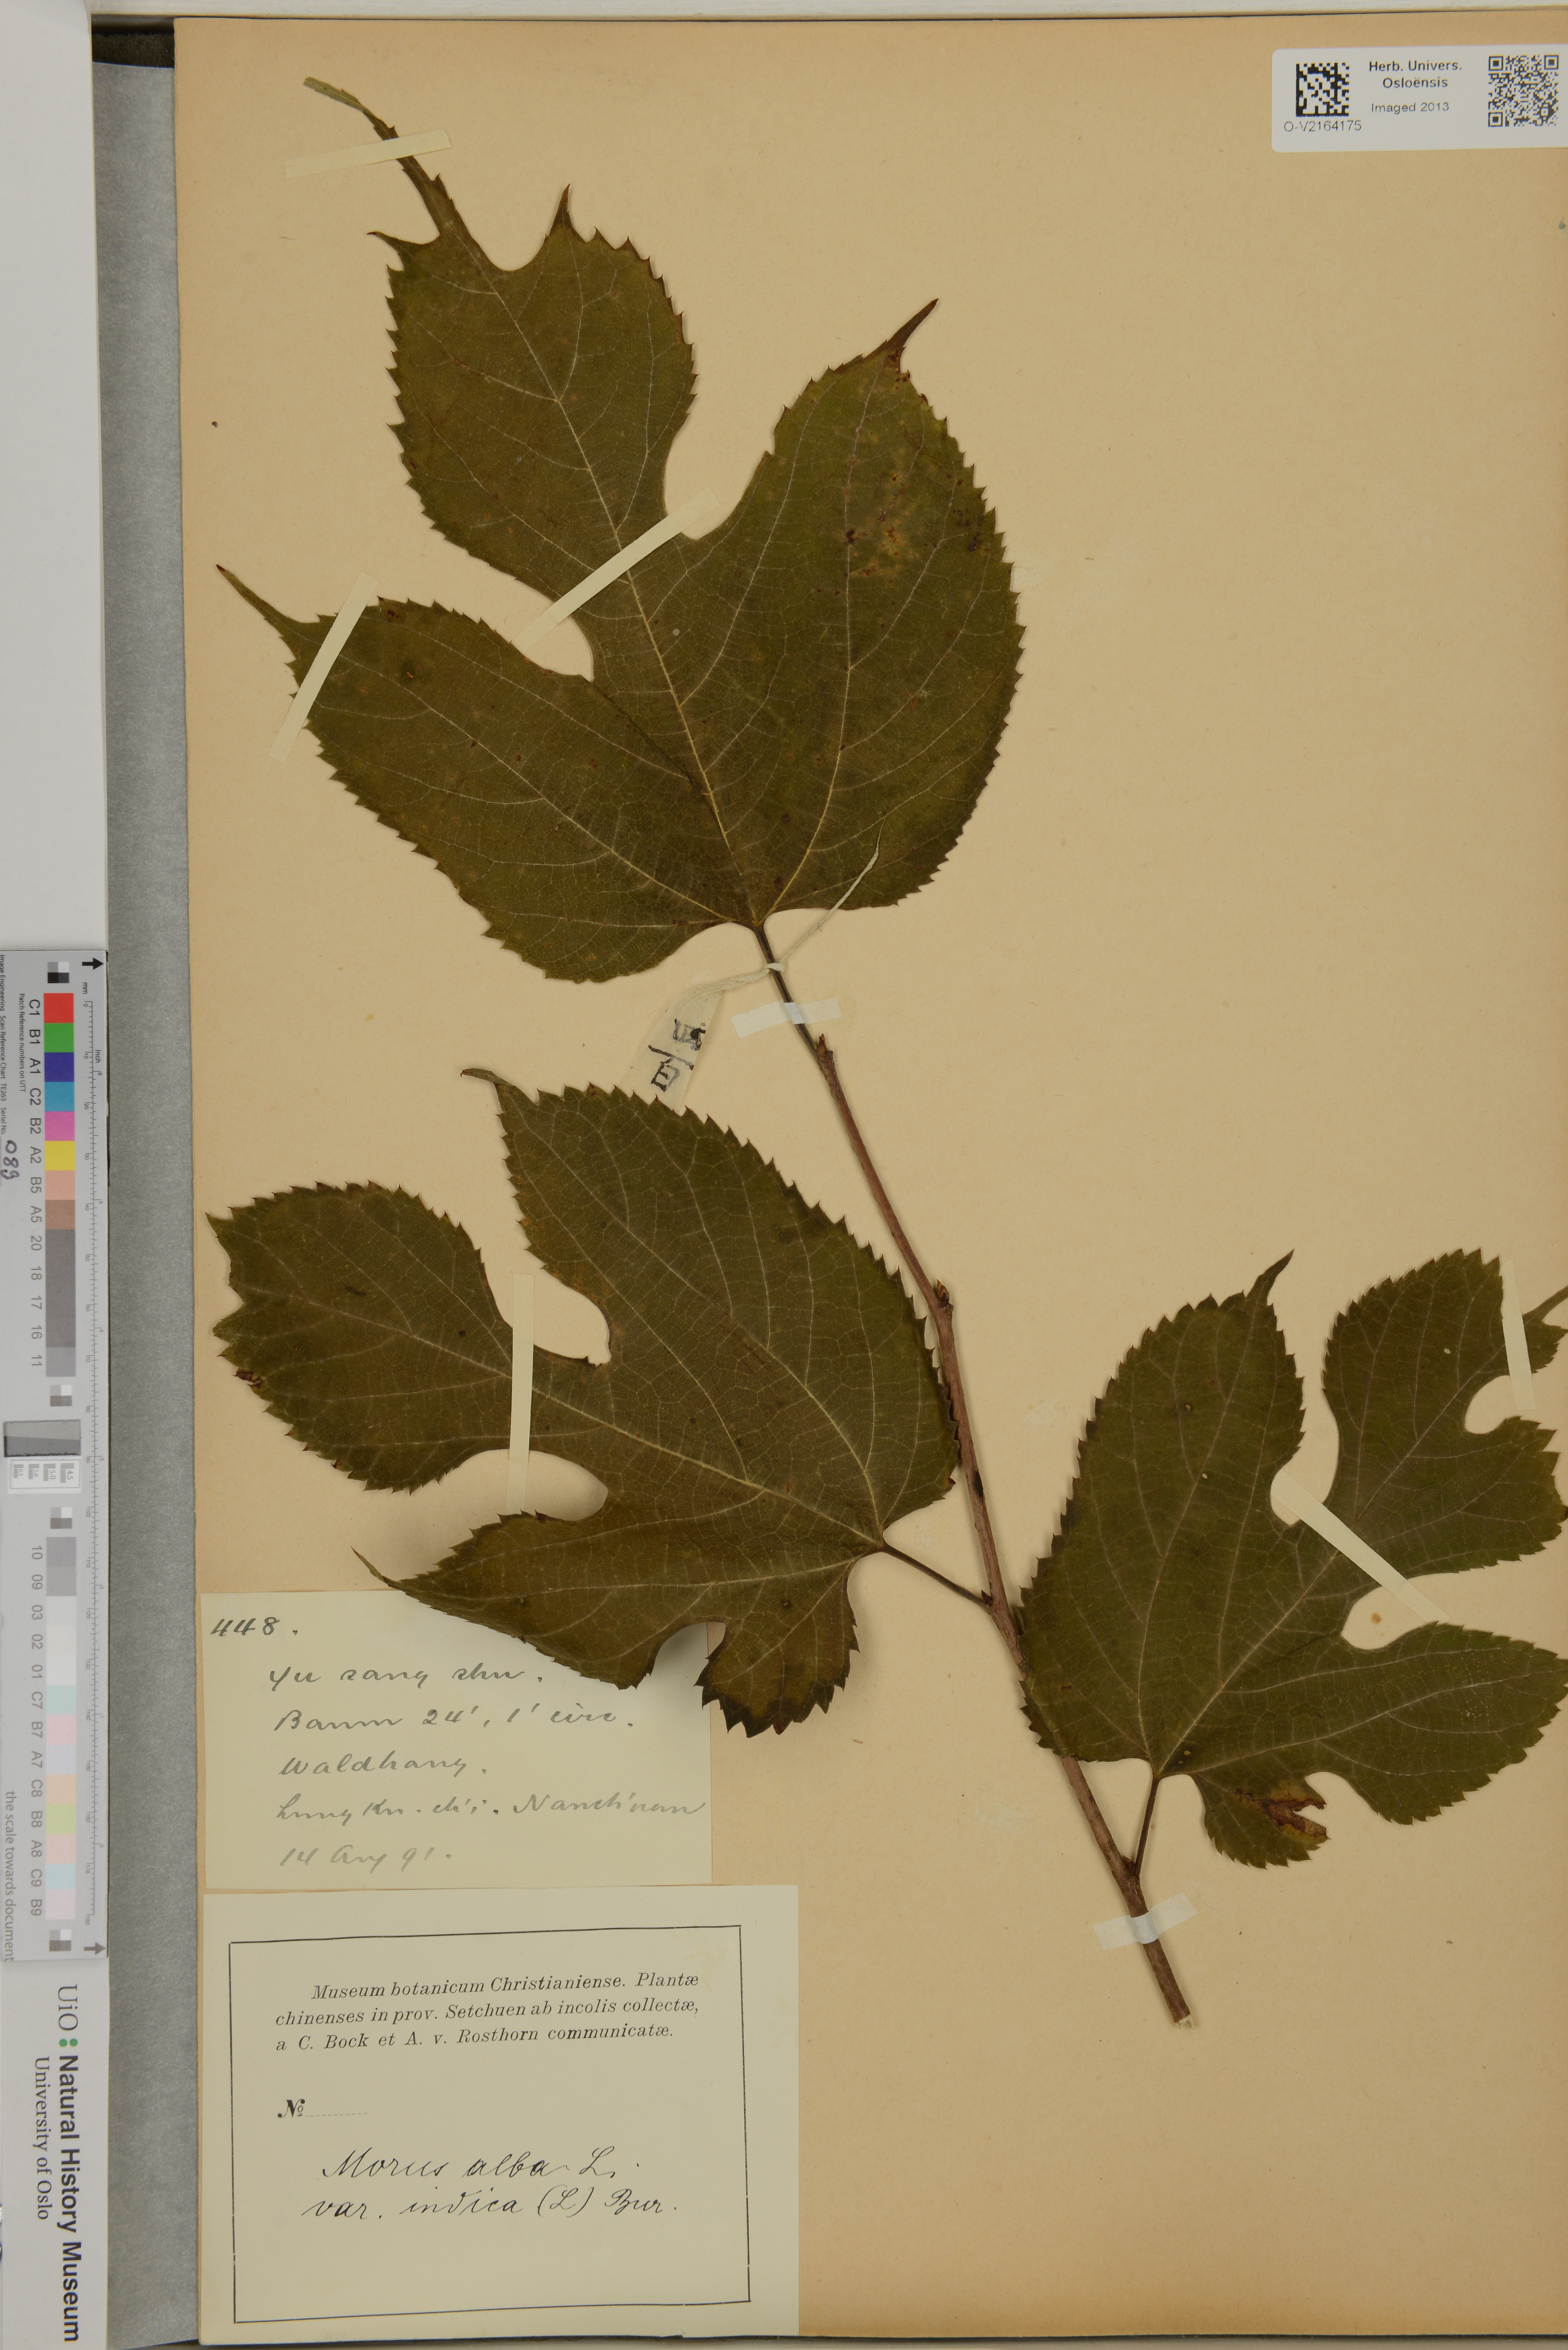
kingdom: Plantae
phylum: Tracheophyta
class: Magnoliopsida
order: Rosales
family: Moraceae
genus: Morus
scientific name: Morus alba
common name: White mulberry
